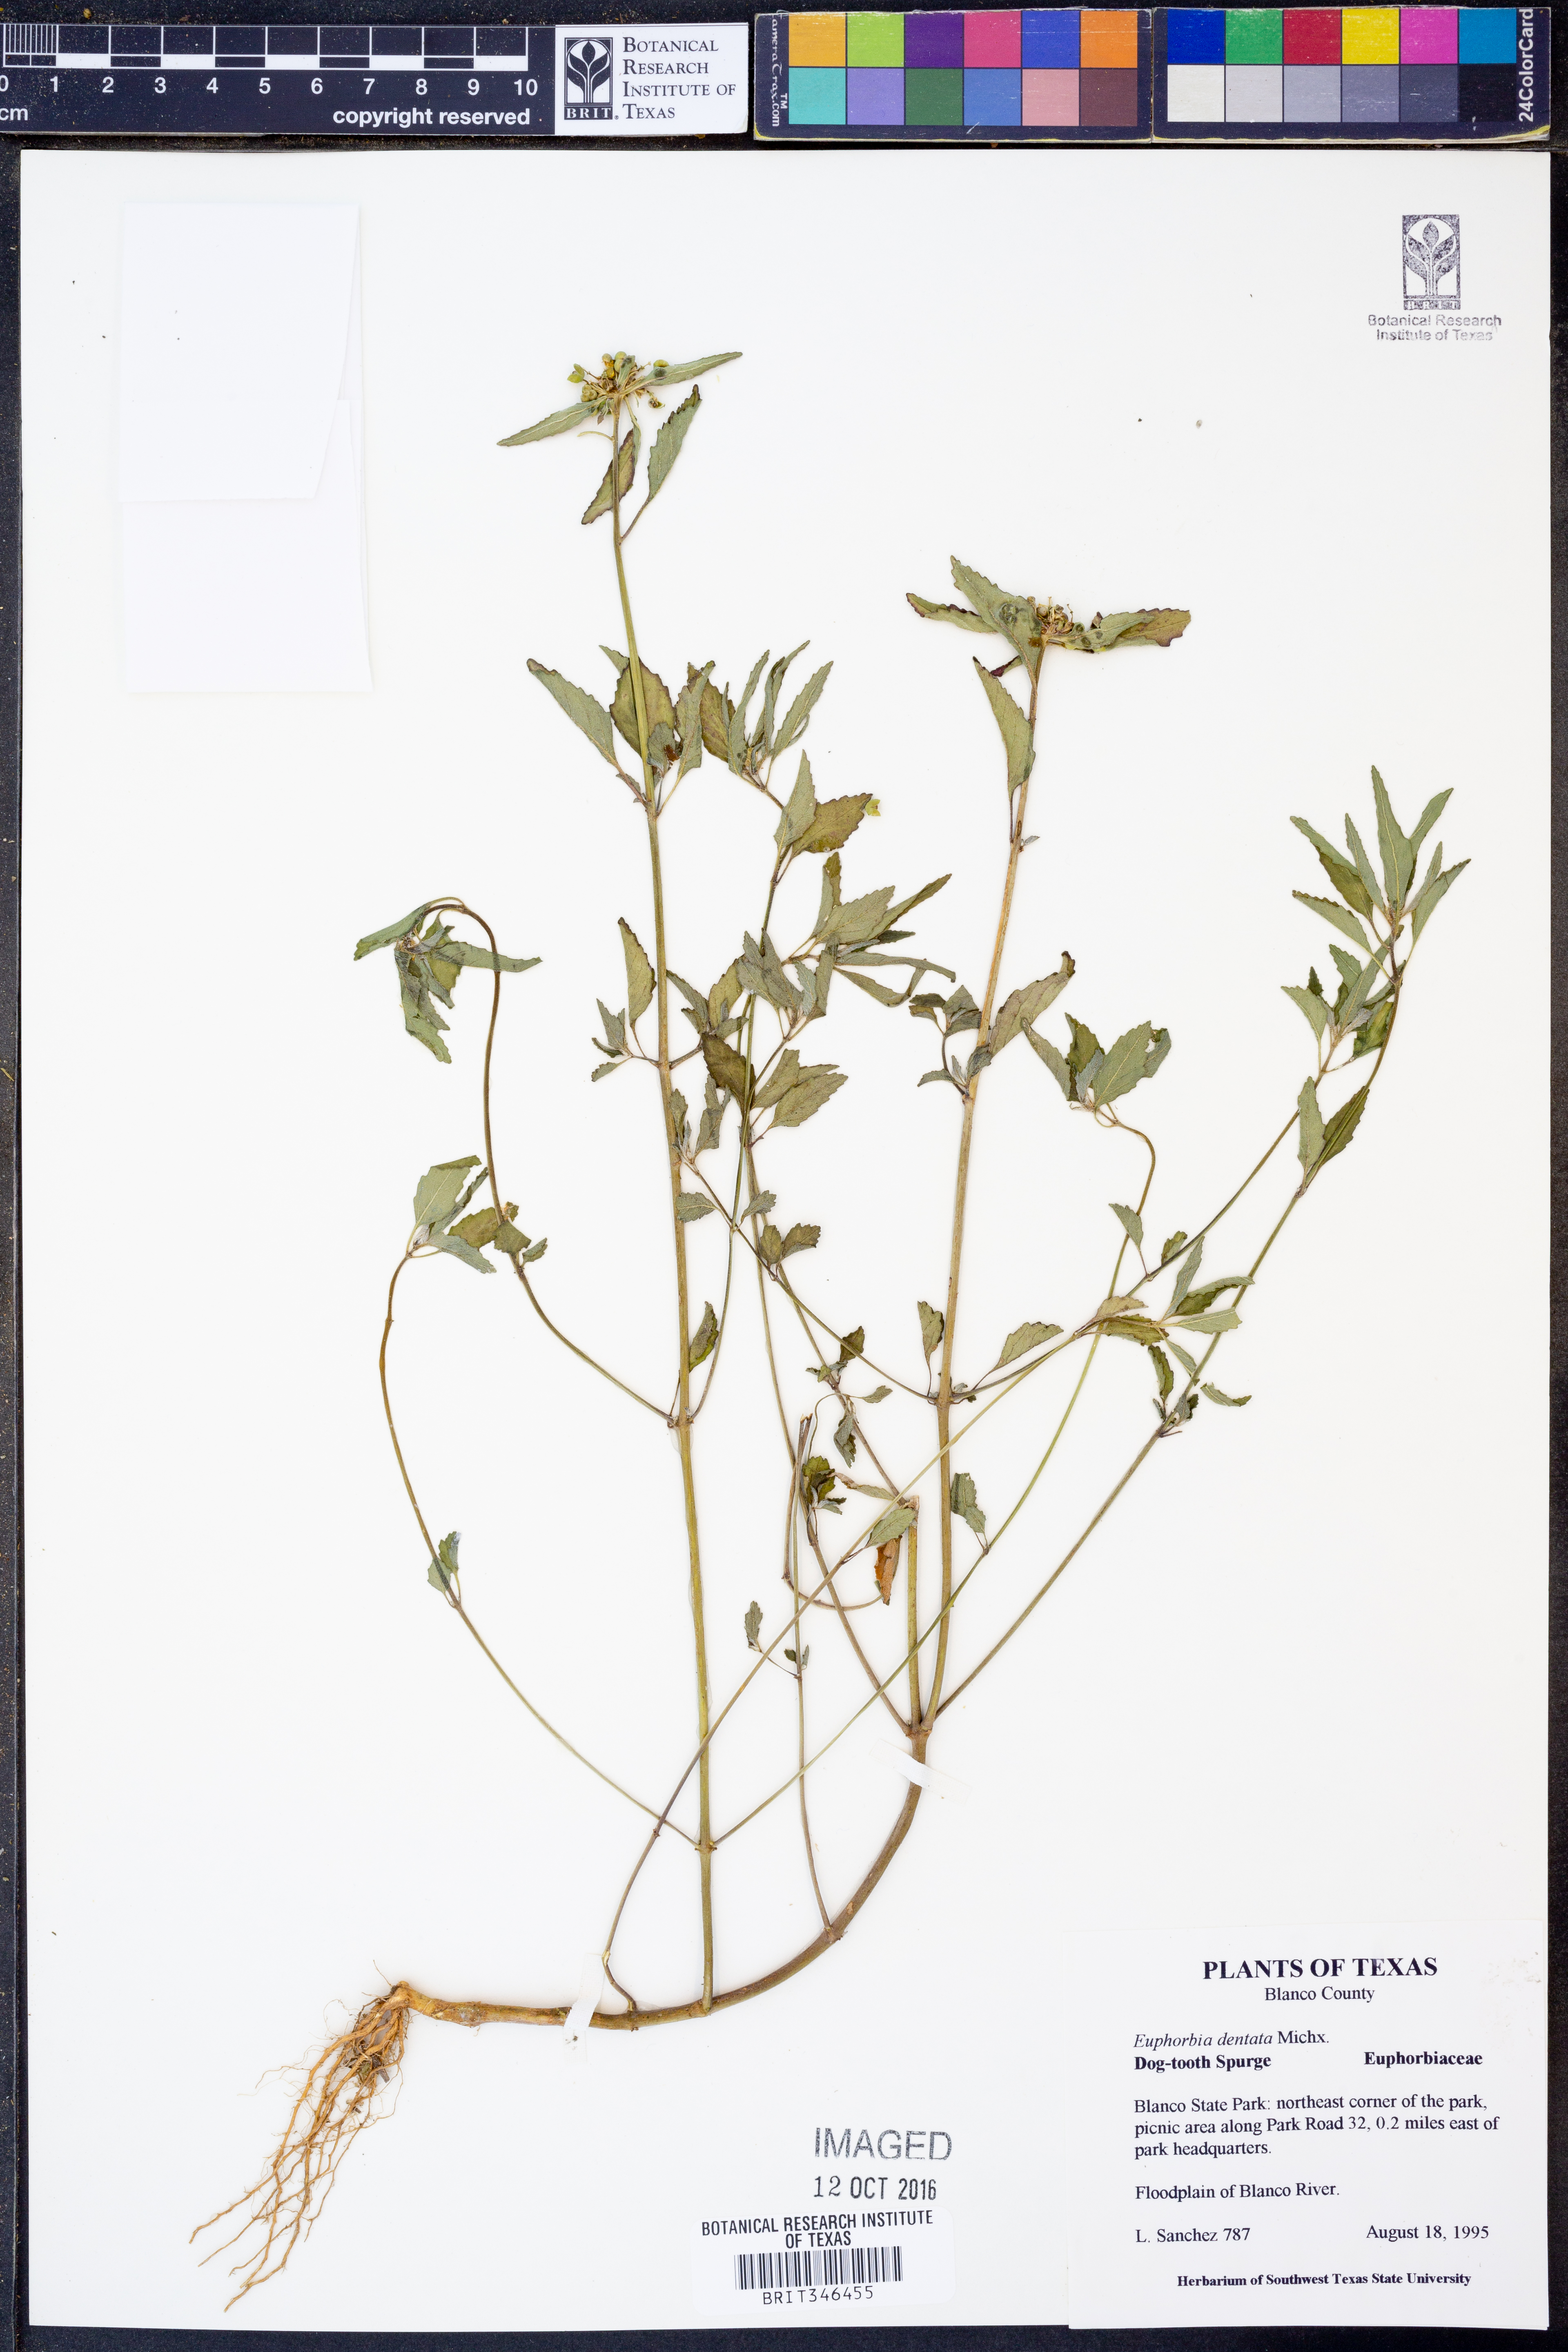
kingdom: Plantae
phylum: Tracheophyta
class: Magnoliopsida
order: Malpighiales
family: Euphorbiaceae
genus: Euphorbia
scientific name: Euphorbia dentata
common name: Dentate spurge
